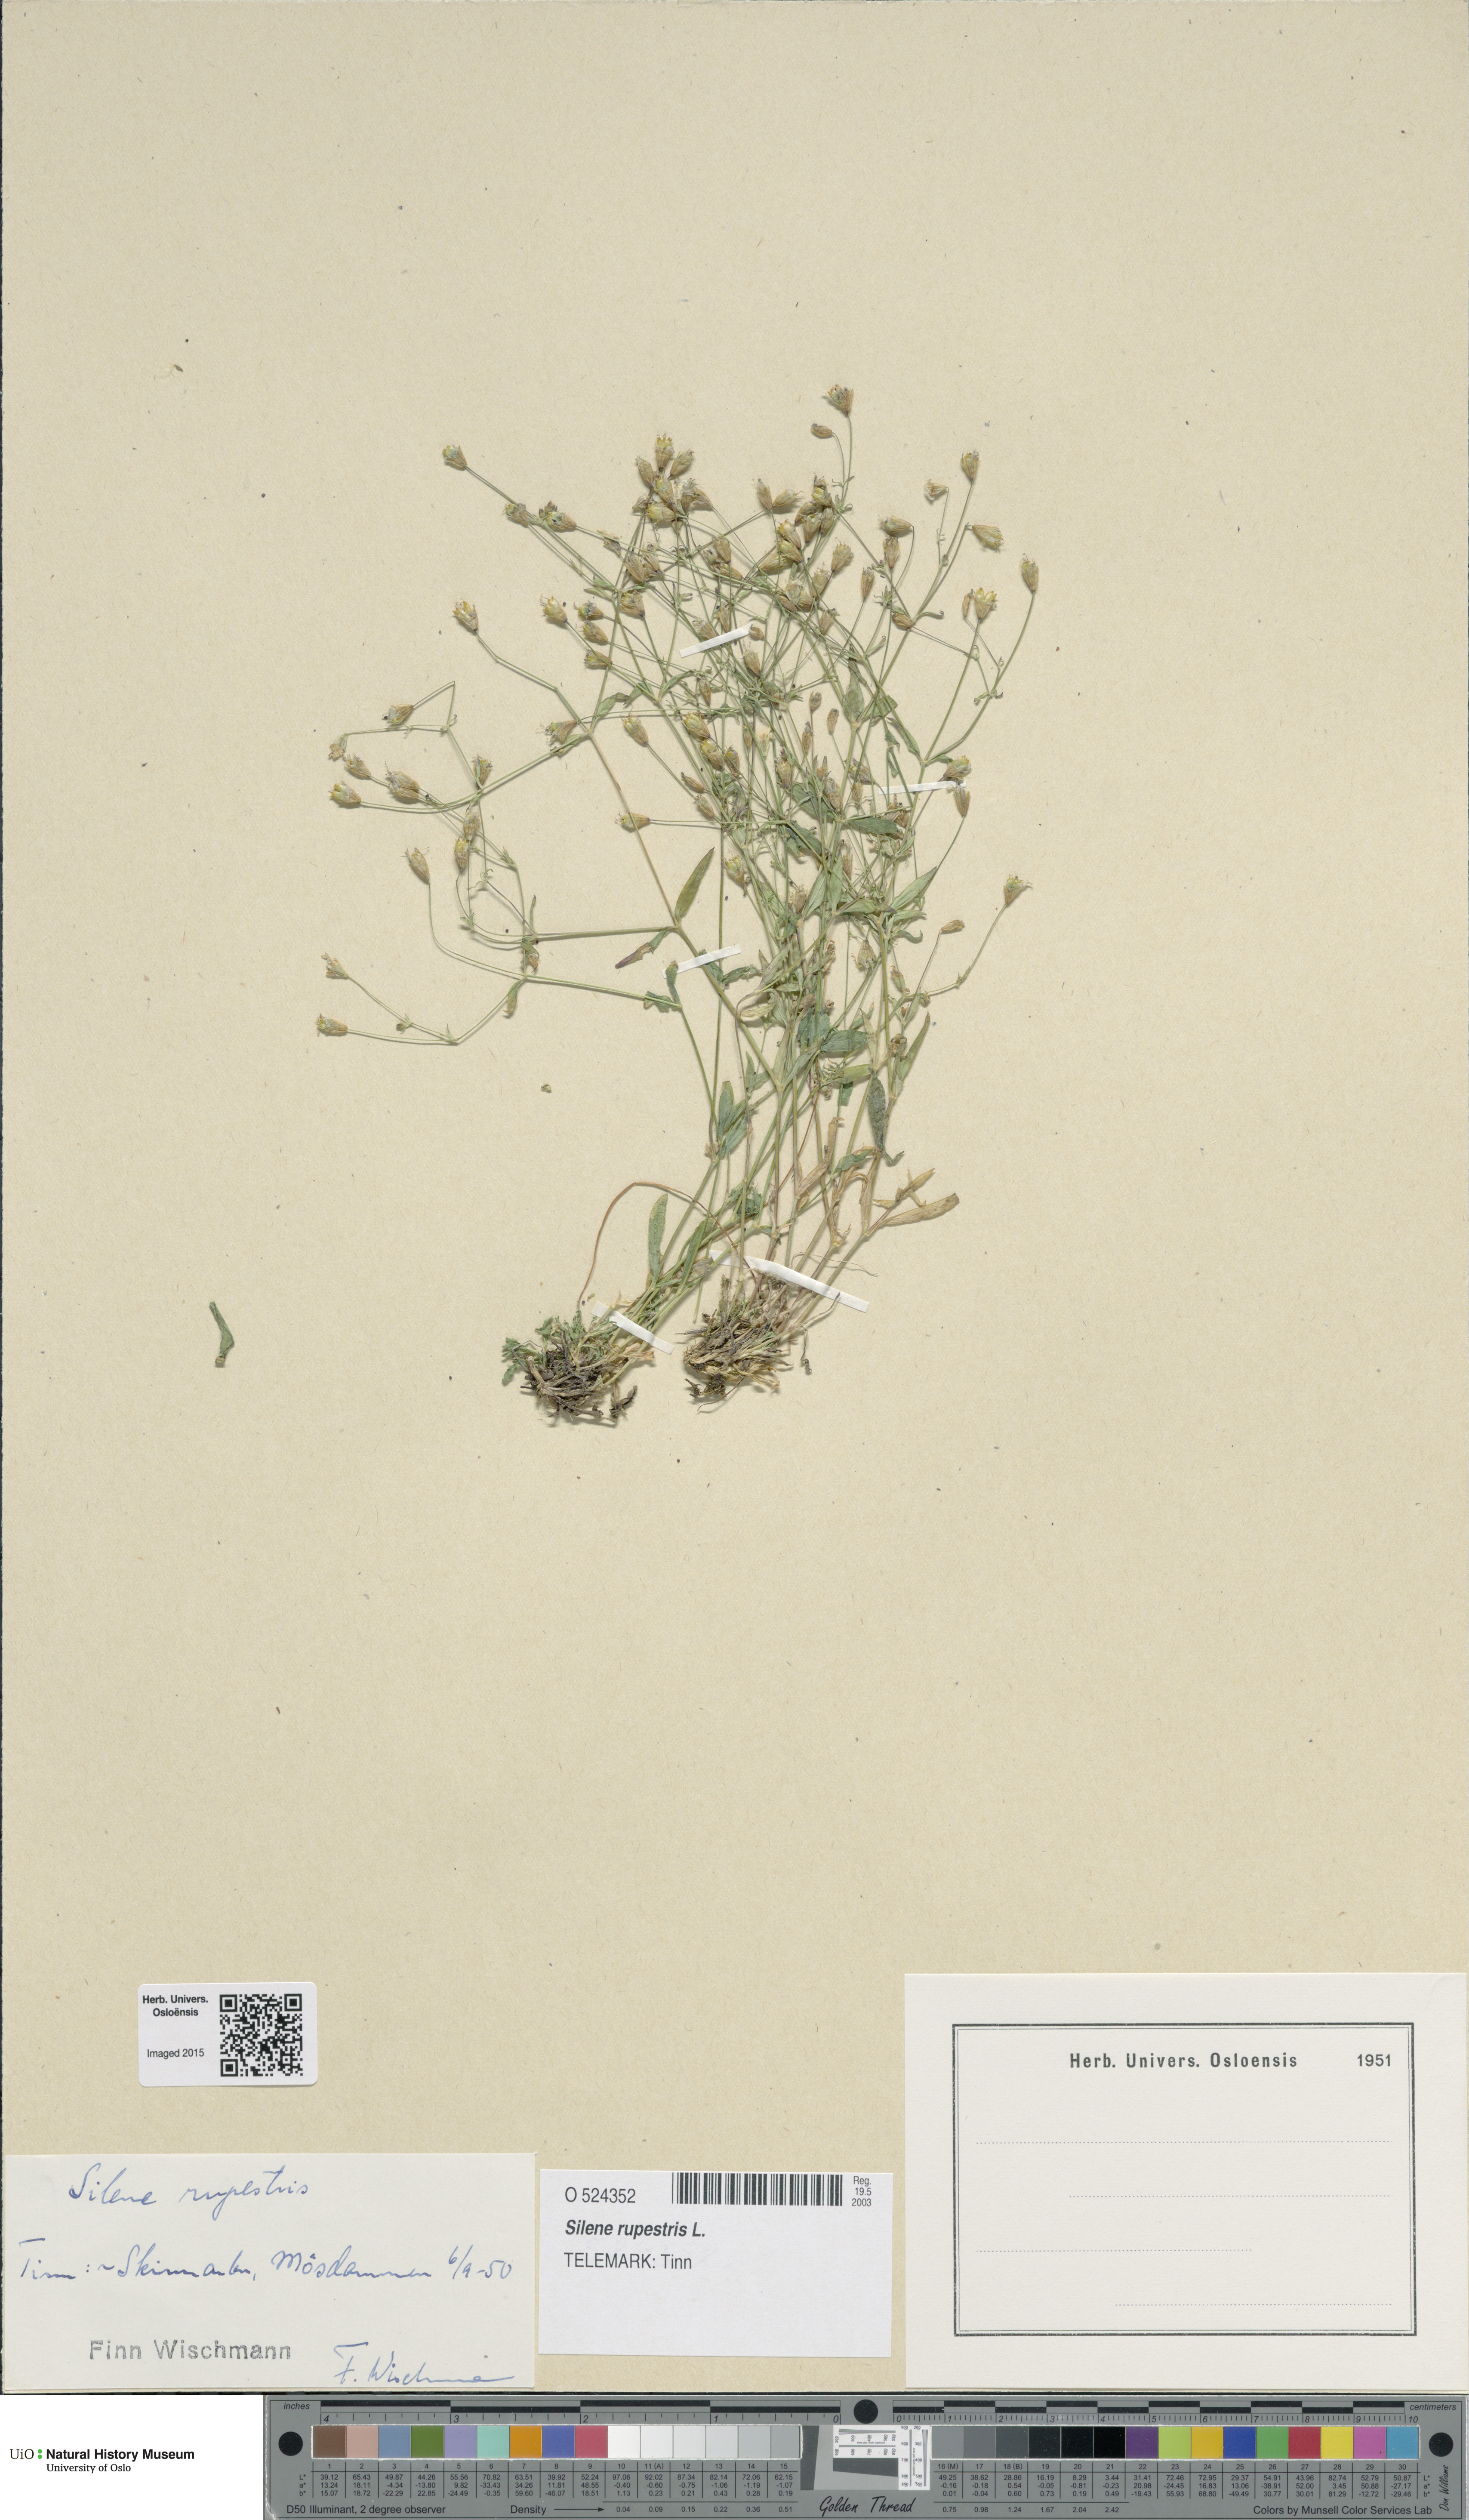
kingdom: Plantae
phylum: Tracheophyta
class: Magnoliopsida
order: Caryophyllales
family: Caryophyllaceae
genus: Atocion
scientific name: Atocion rupestre
